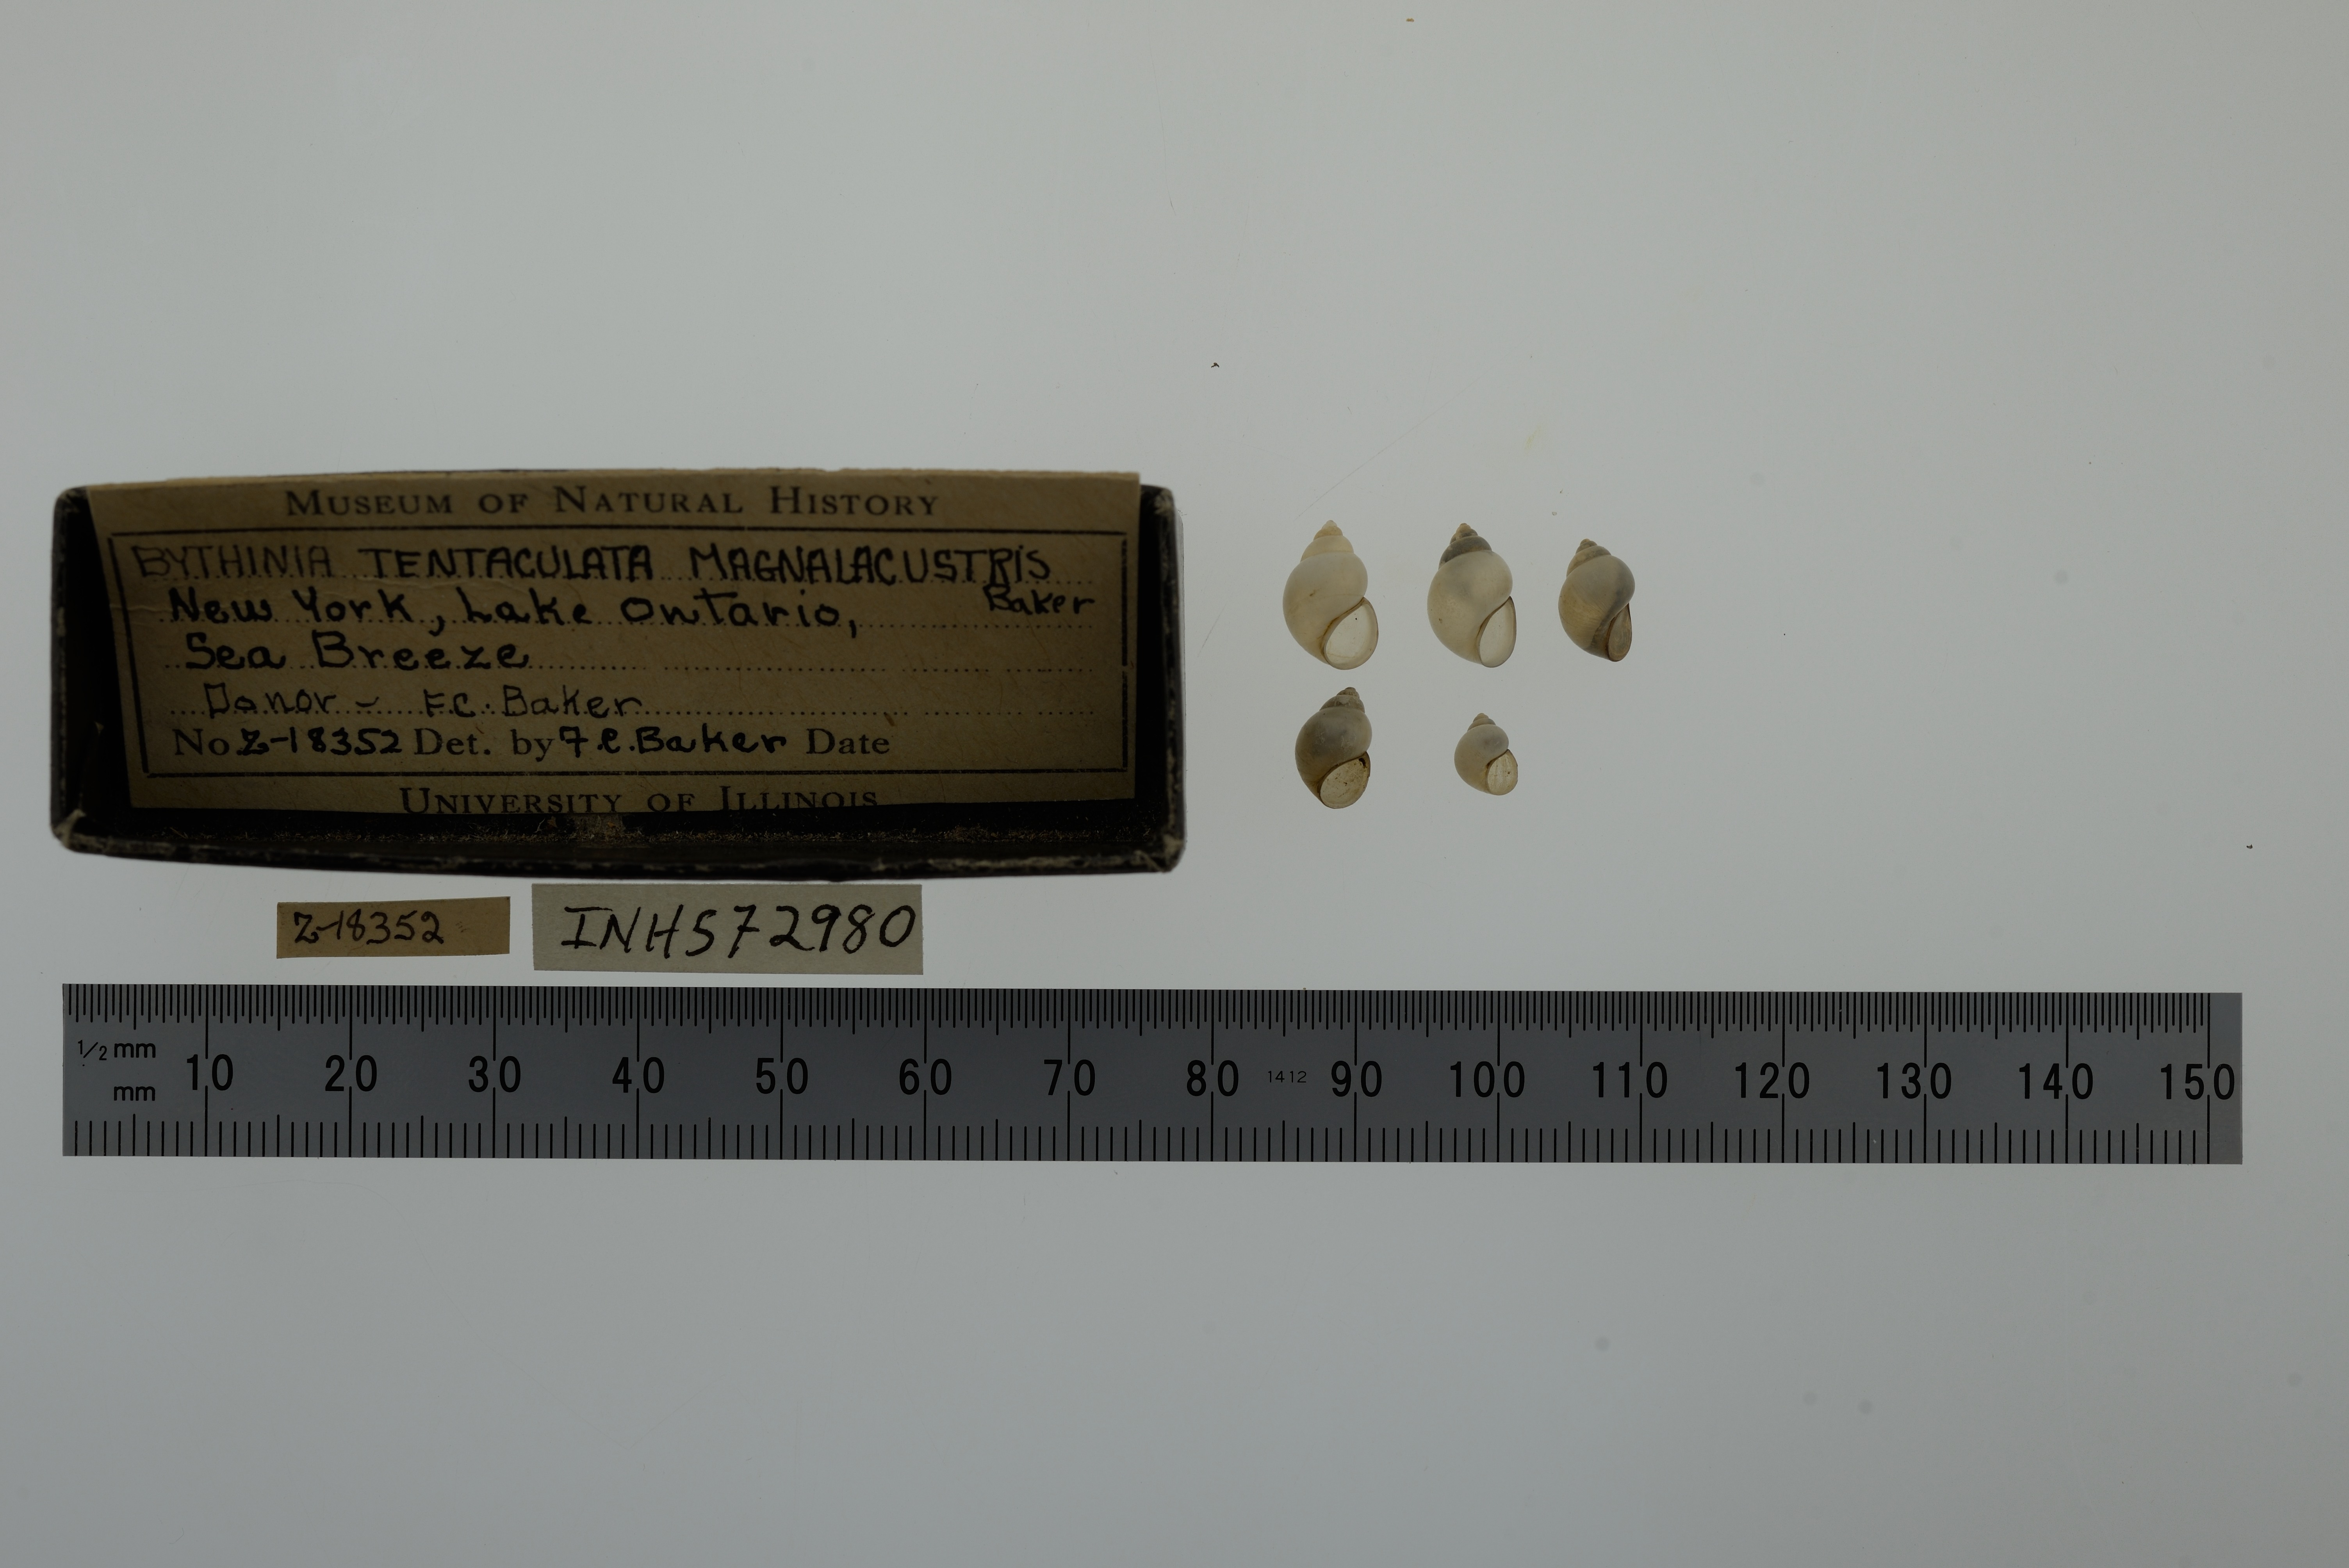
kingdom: Animalia
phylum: Mollusca
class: Gastropoda
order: Littorinimorpha
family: Bithyniidae
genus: Bithynia
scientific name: Bithynia tentaculata
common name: Common bithynia
